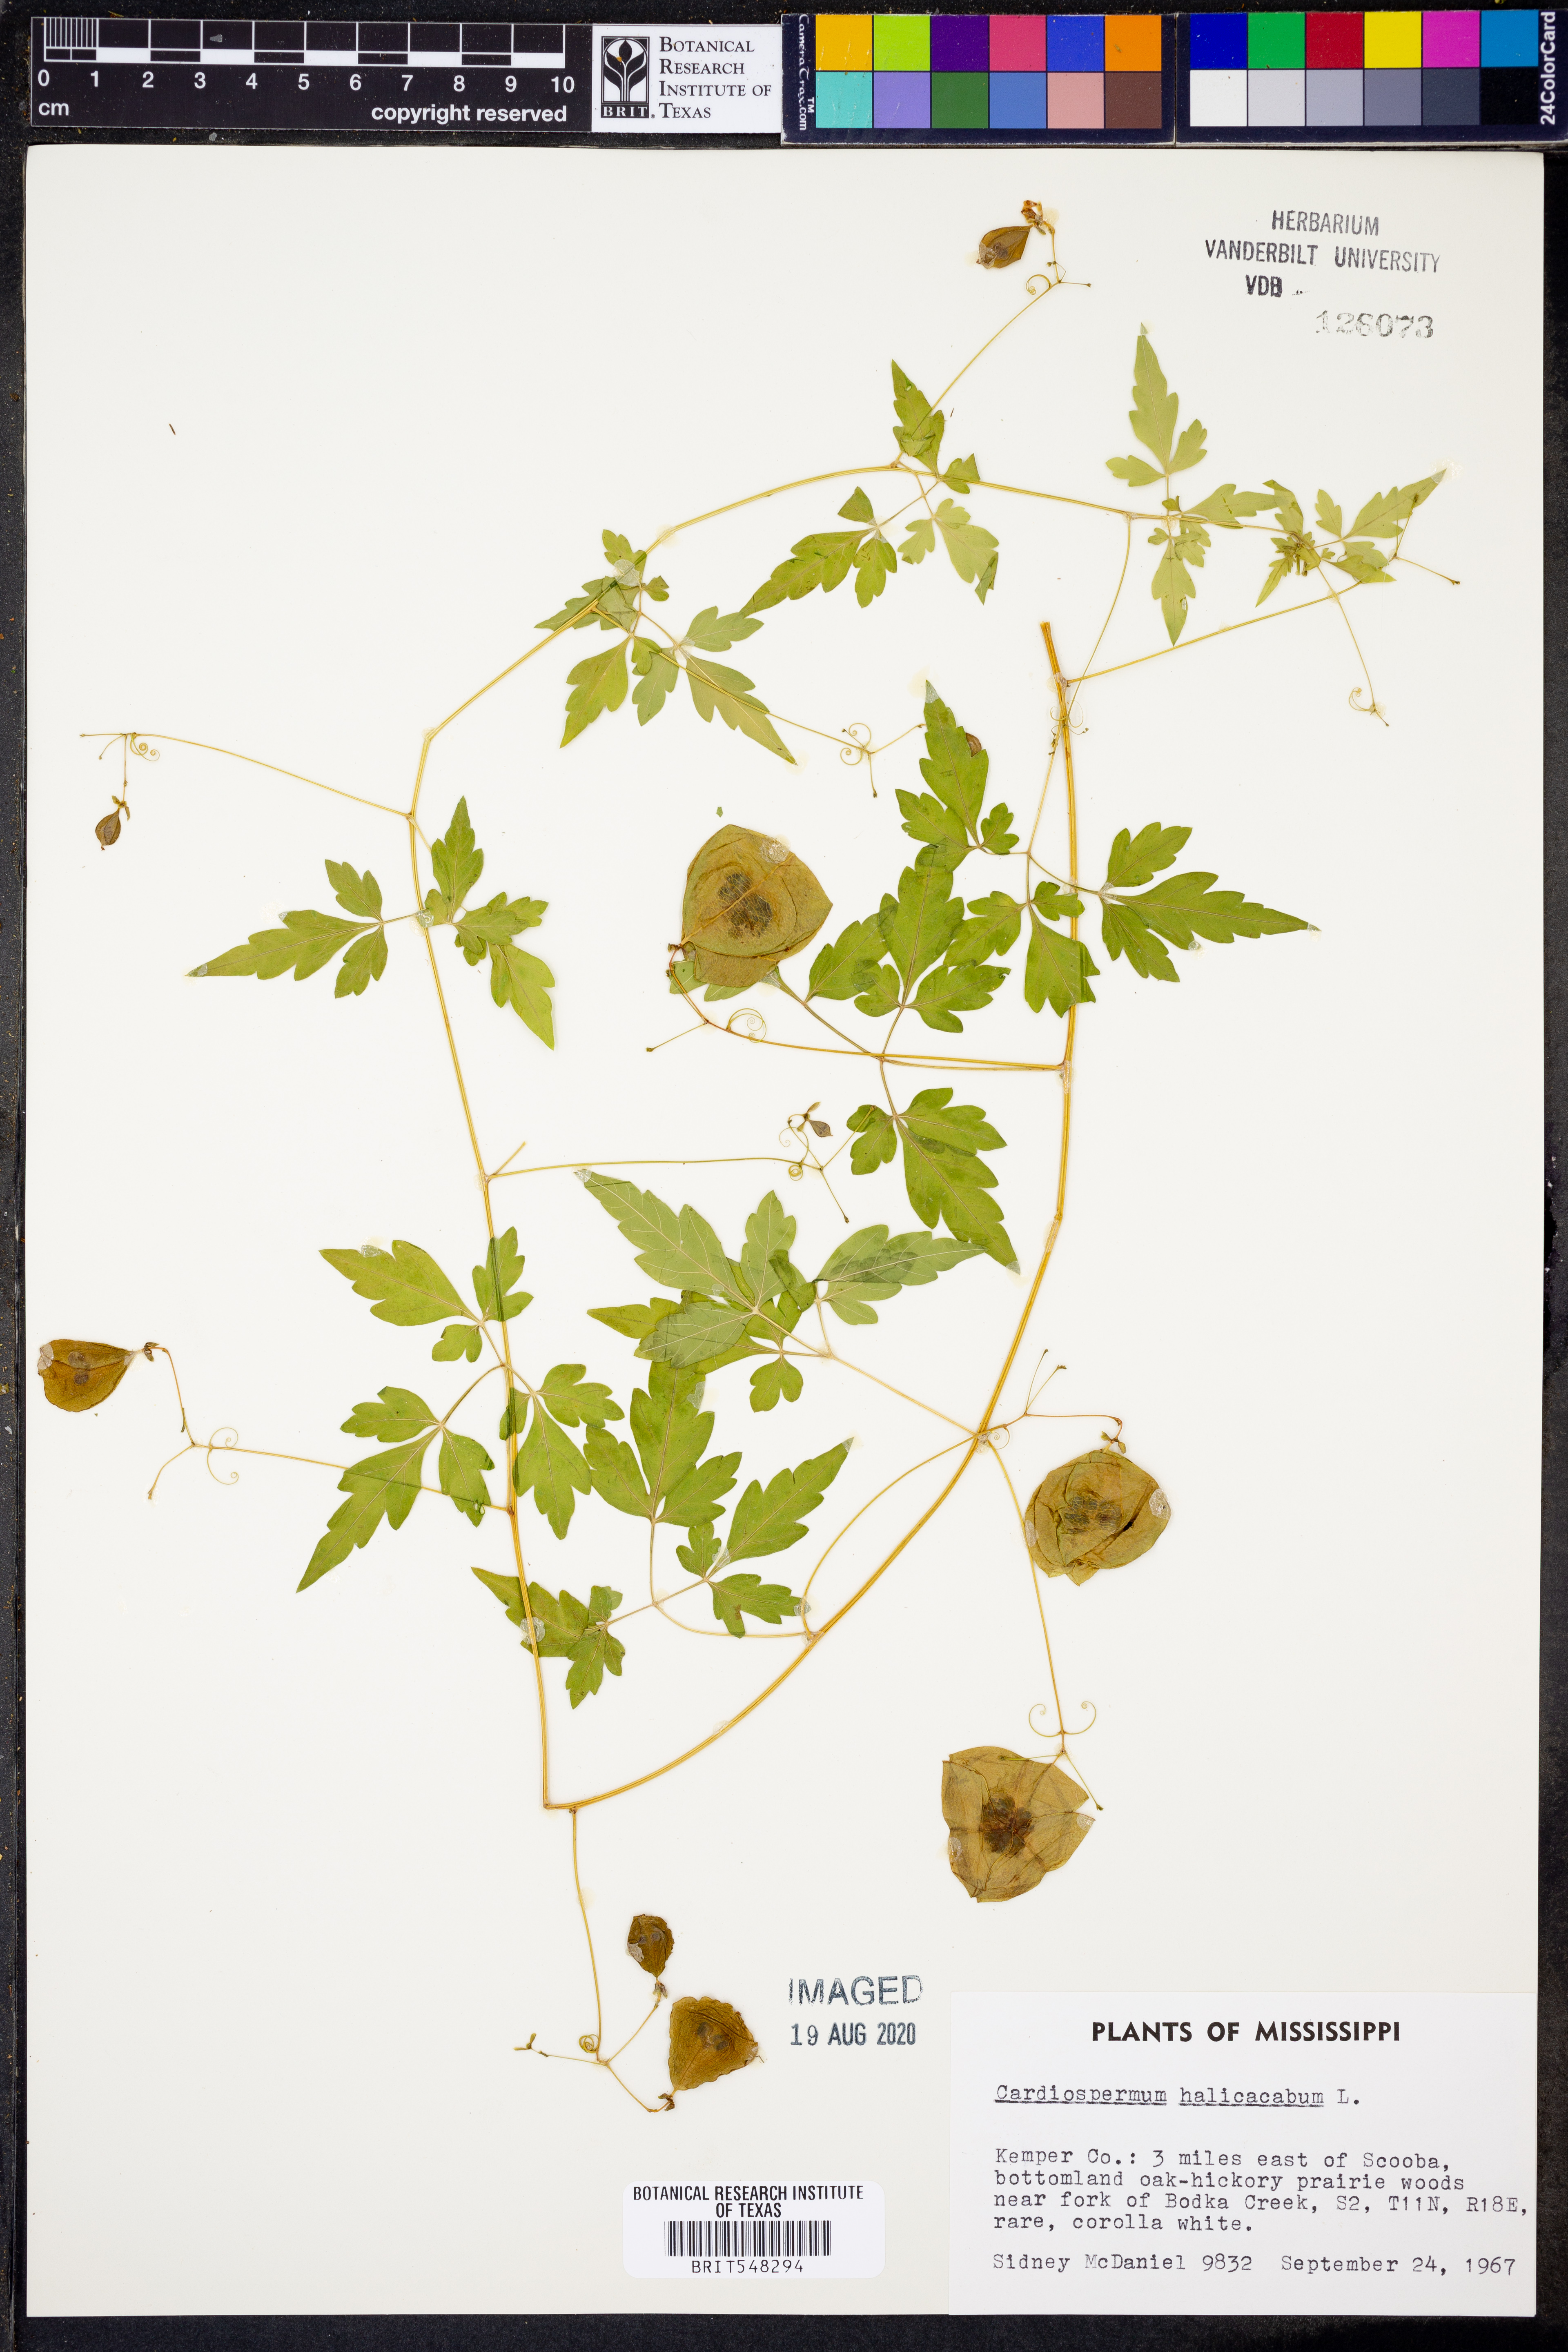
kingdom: Plantae
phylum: Tracheophyta
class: Magnoliopsida
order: Sapindales
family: Sapindaceae
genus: Cardiospermum
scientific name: Cardiospermum halicacabum
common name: Balloon vine
